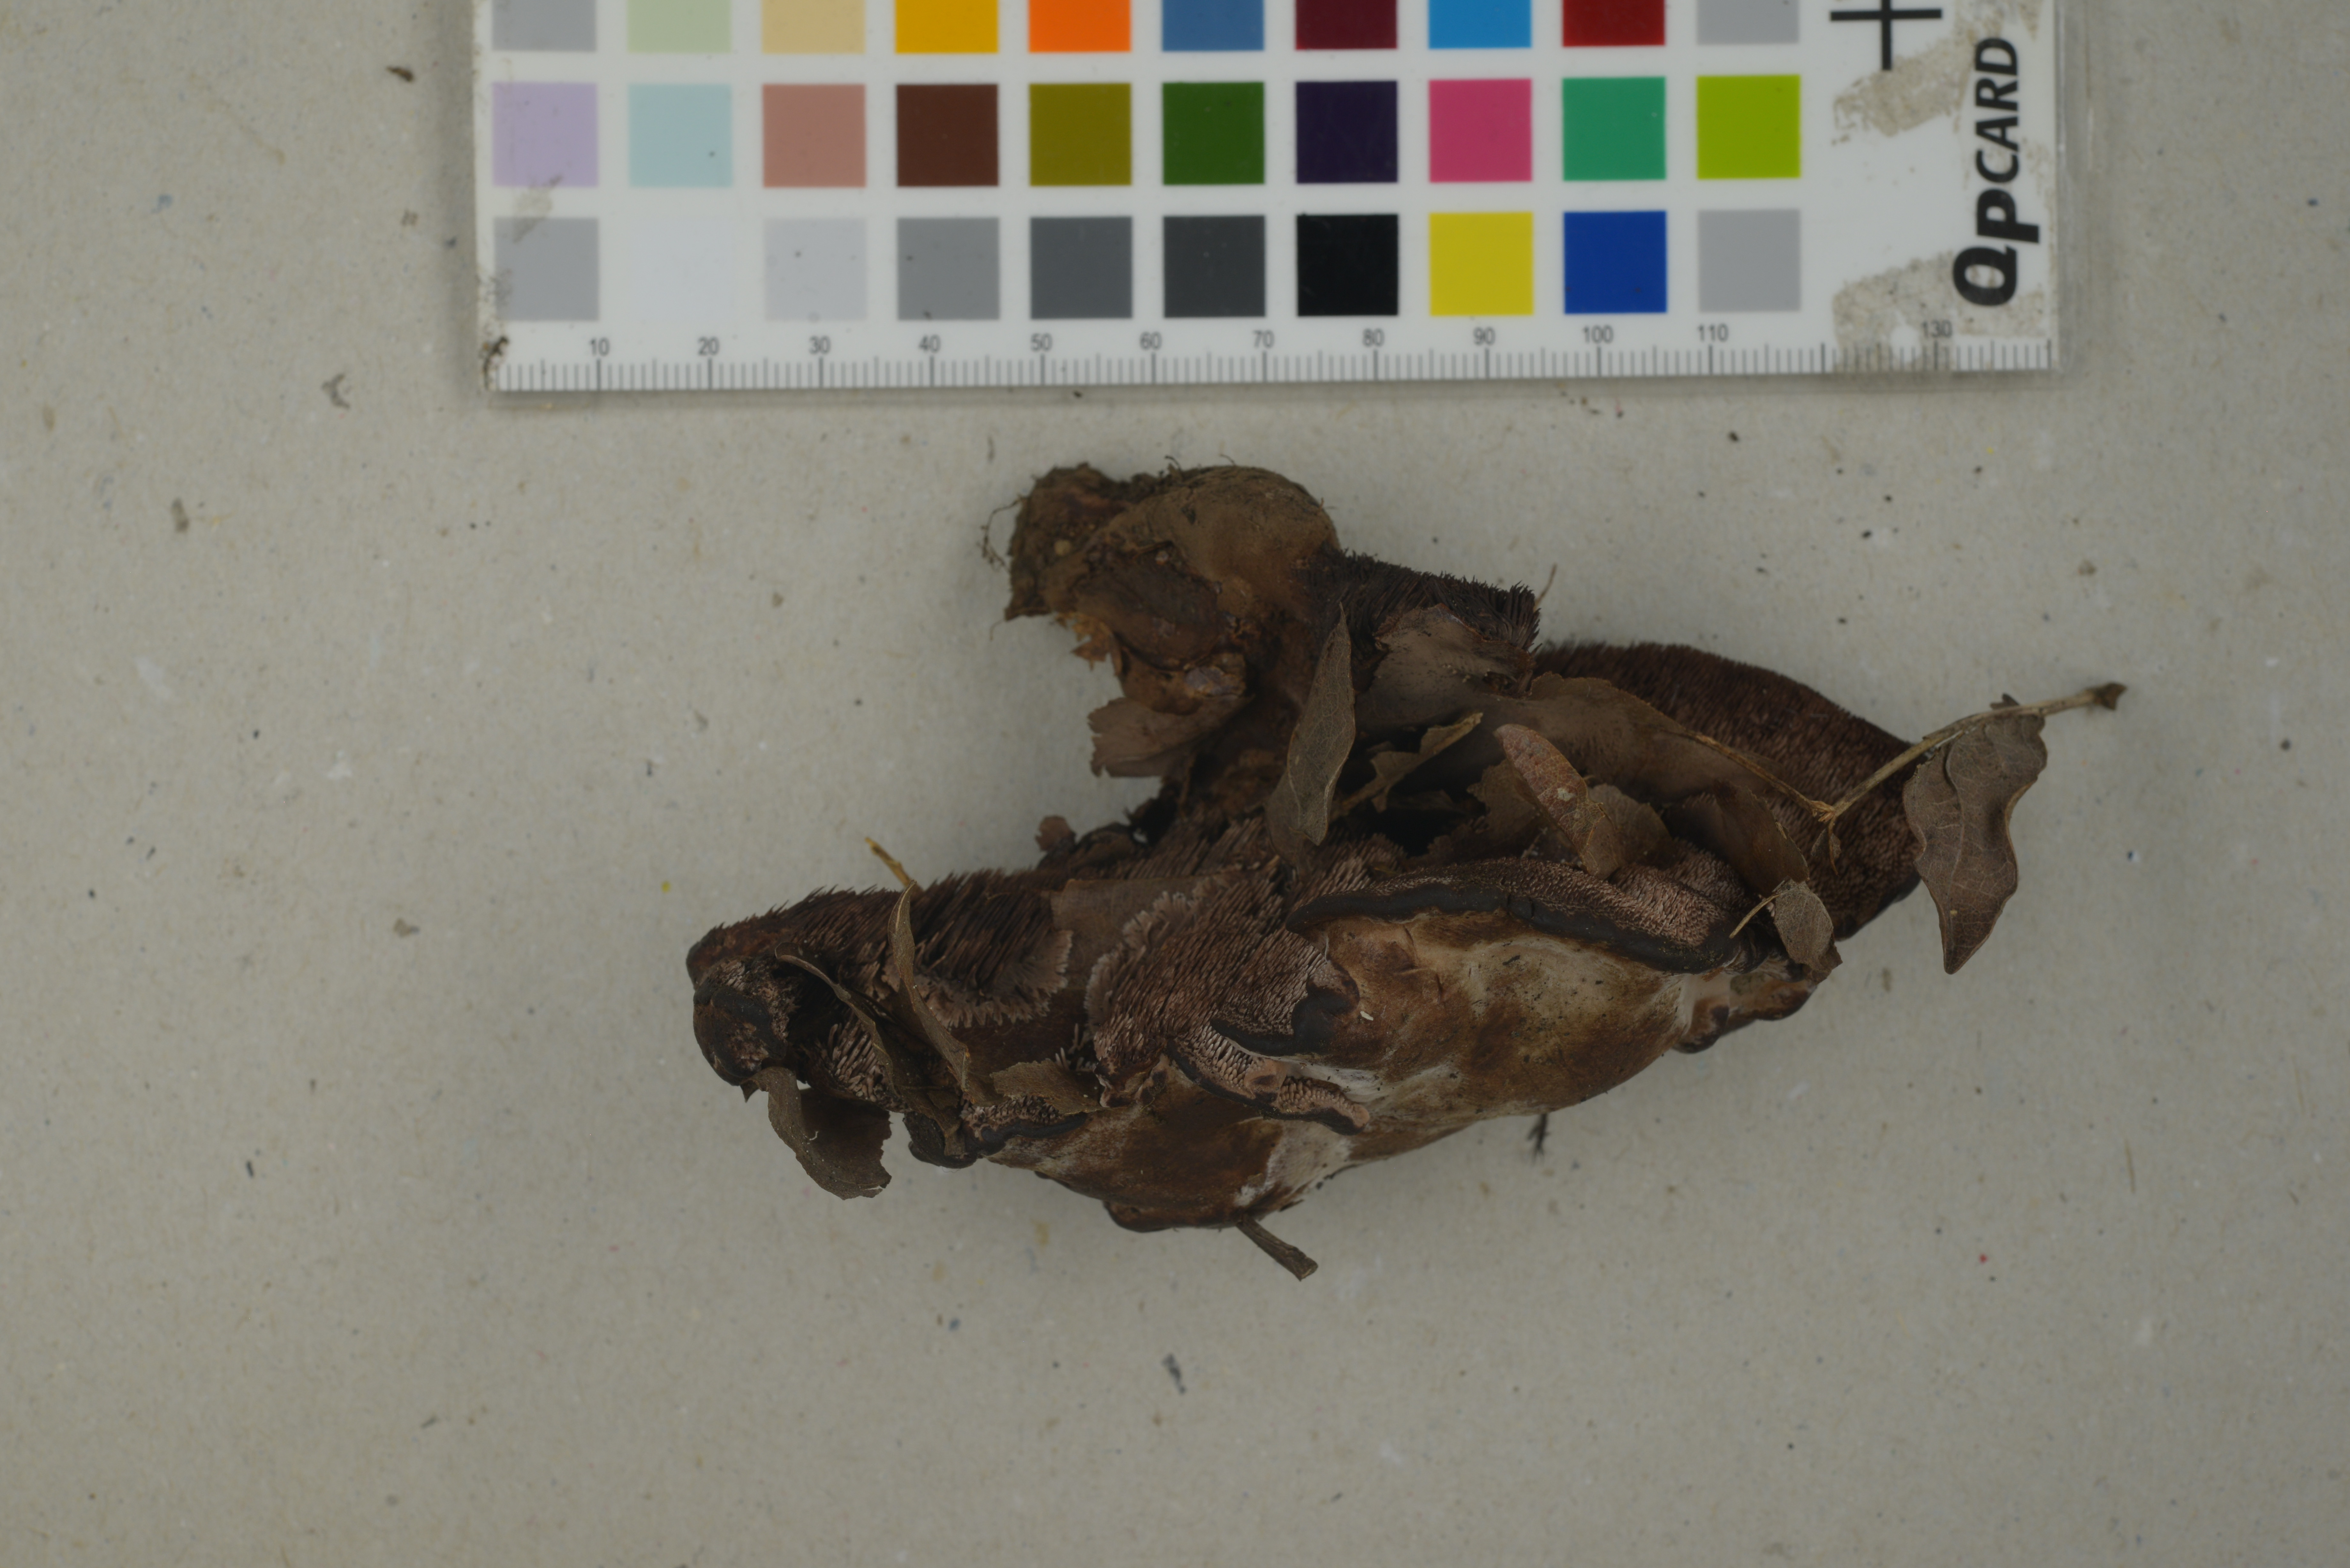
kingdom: Fungi
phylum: Basidiomycota
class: Agaricomycetes
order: Thelephorales
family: Bankeraceae
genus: Hydnellum
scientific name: Hydnellum spongiosipes
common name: Velvet tooth
